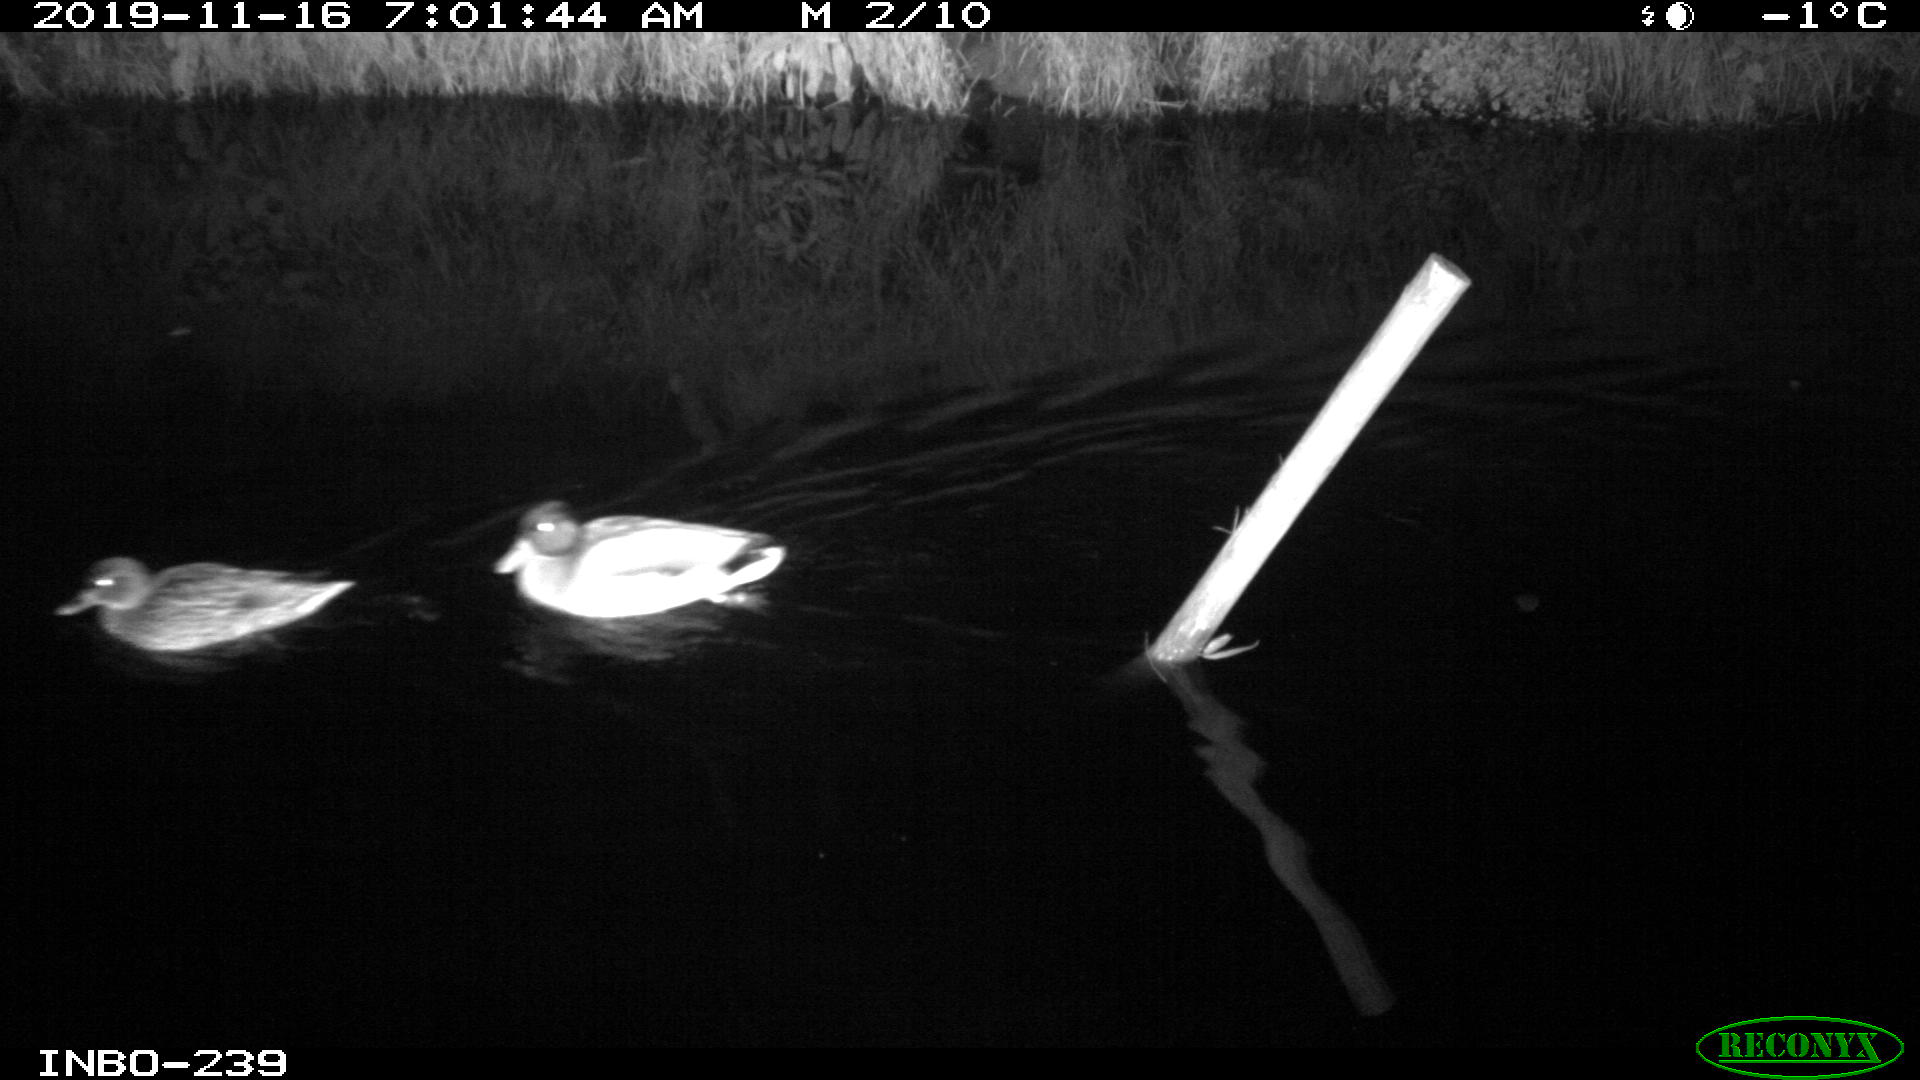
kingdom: Animalia
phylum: Chordata
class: Aves
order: Anseriformes
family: Anatidae
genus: Anas
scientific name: Anas platyrhynchos
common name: Mallard
